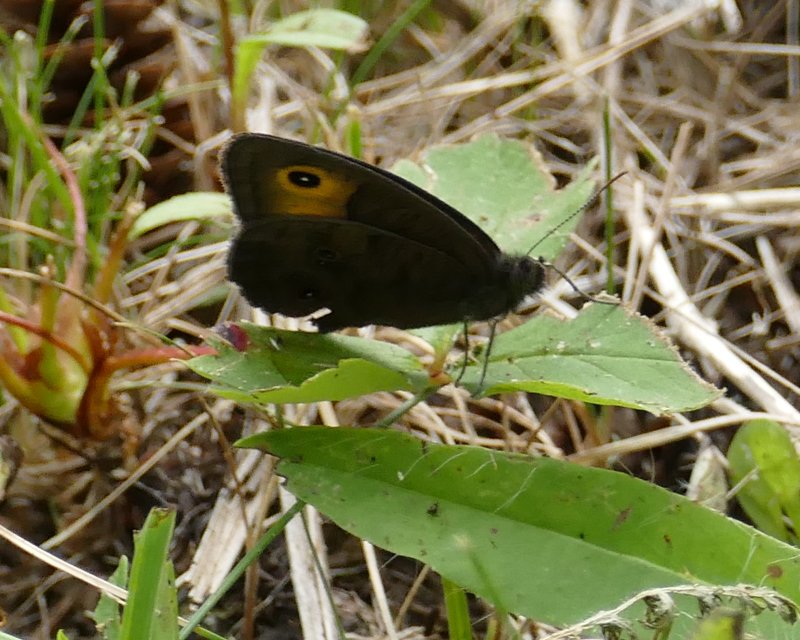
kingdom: Animalia
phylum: Arthropoda
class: Insecta
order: Lepidoptera
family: Nymphalidae
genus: Cercyonis
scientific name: Cercyonis pegala
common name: Common Wood-Nymph
